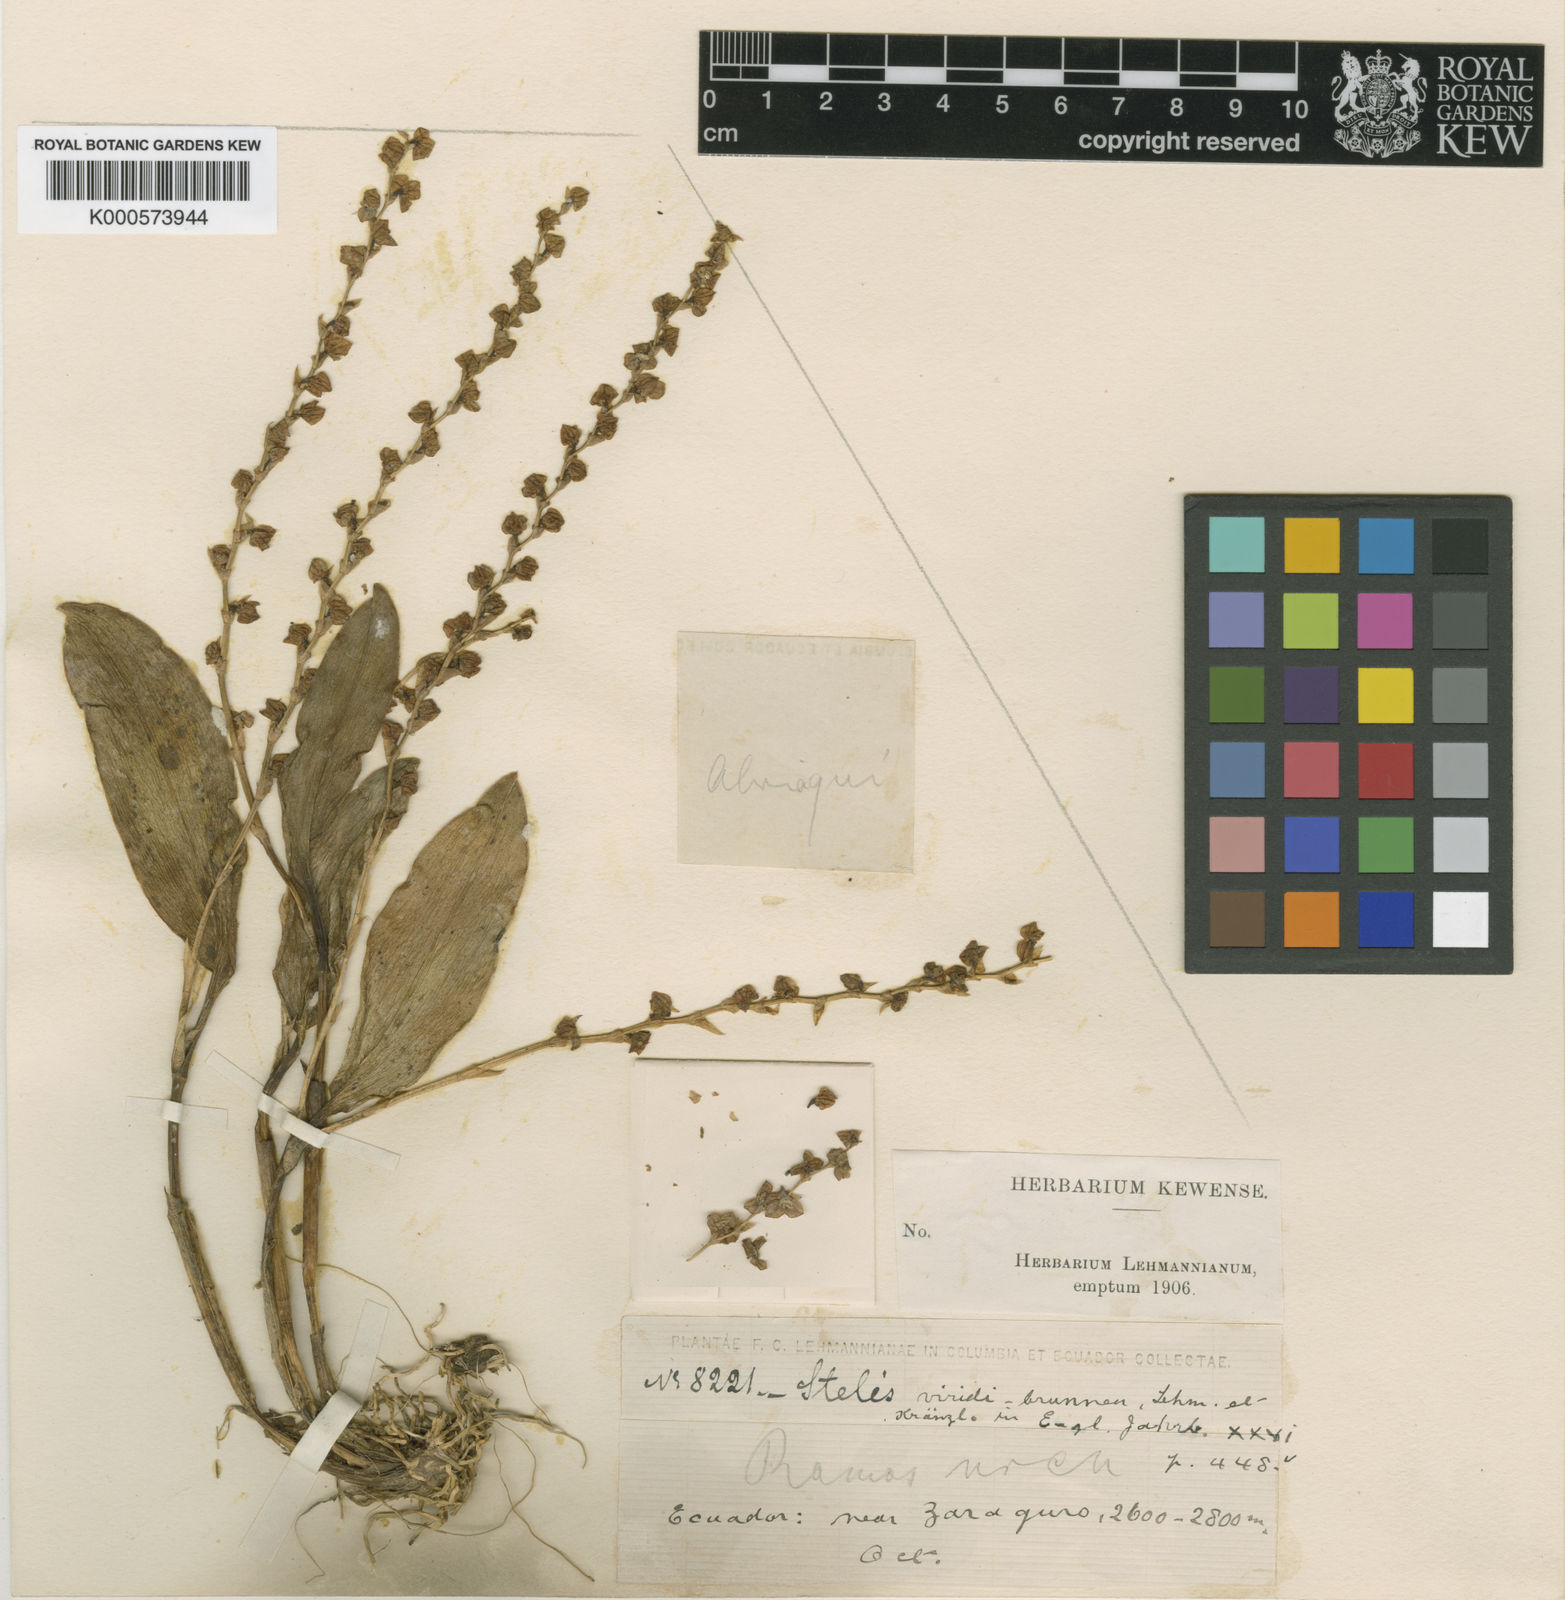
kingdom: Plantae
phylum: Tracheophyta
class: Liliopsida
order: Asparagales
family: Orchidaceae
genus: Stelis
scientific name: Stelis major
